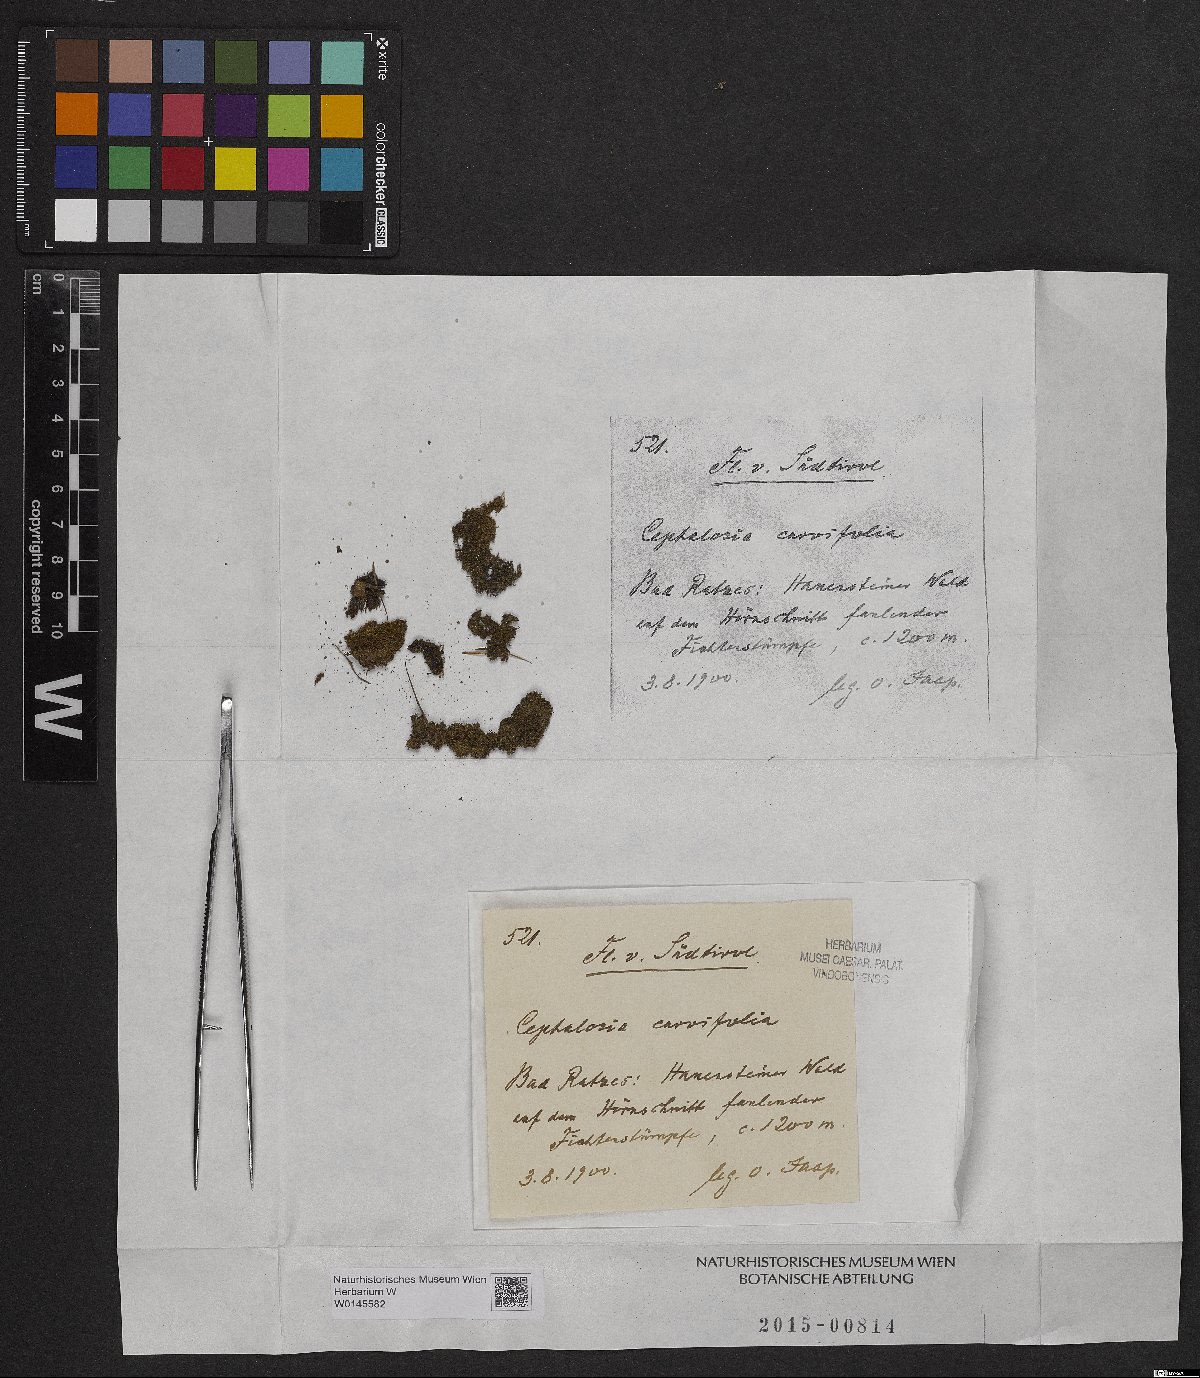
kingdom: Plantae
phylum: Marchantiophyta
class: Jungermanniopsida
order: Jungermanniales
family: Cephaloziaceae
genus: Cephalozia
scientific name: Cephalozia bicuspidata
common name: Two-horned pincerwort
